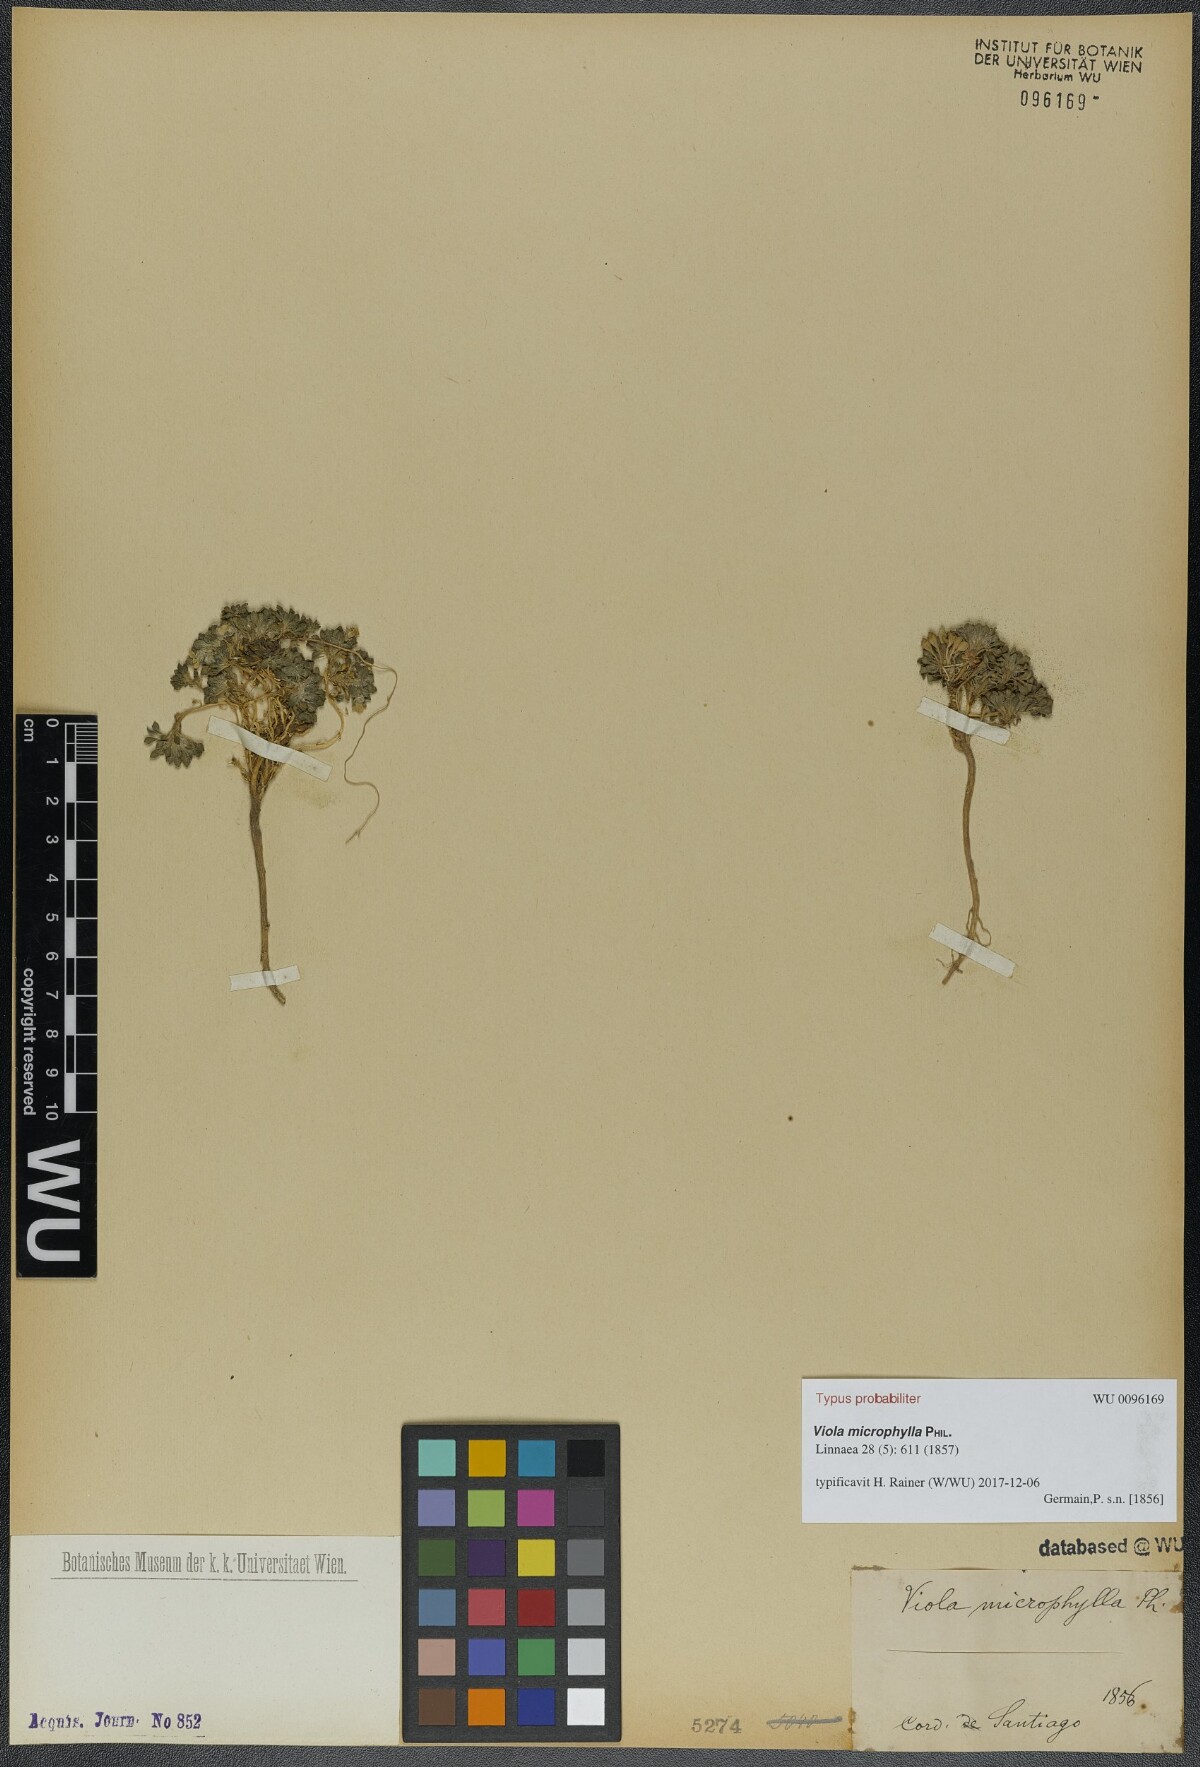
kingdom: Plantae
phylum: Tracheophyta
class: Magnoliopsida
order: Malpighiales
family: Violaceae
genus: Viola
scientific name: Viola philippii
